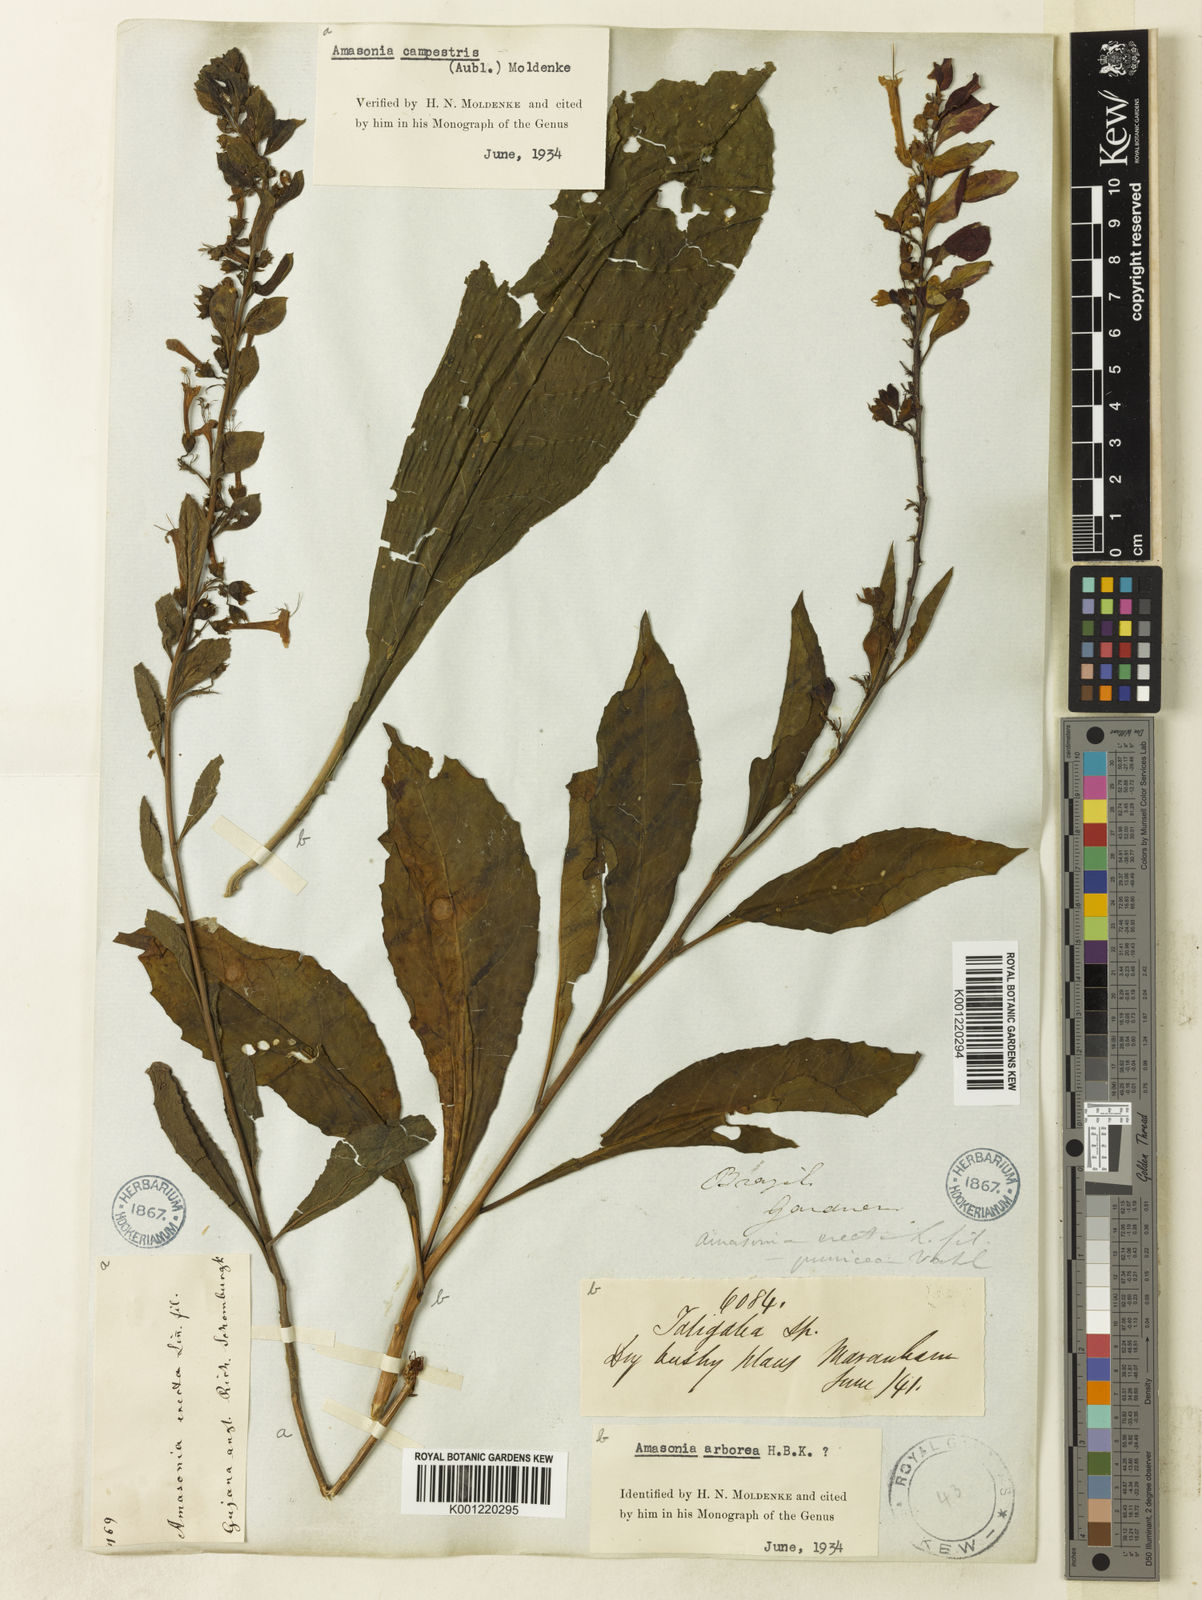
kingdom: Plantae
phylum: Tracheophyta
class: Magnoliopsida
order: Lamiales
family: Lamiaceae
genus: Amasonia
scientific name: Amasonia arborea
